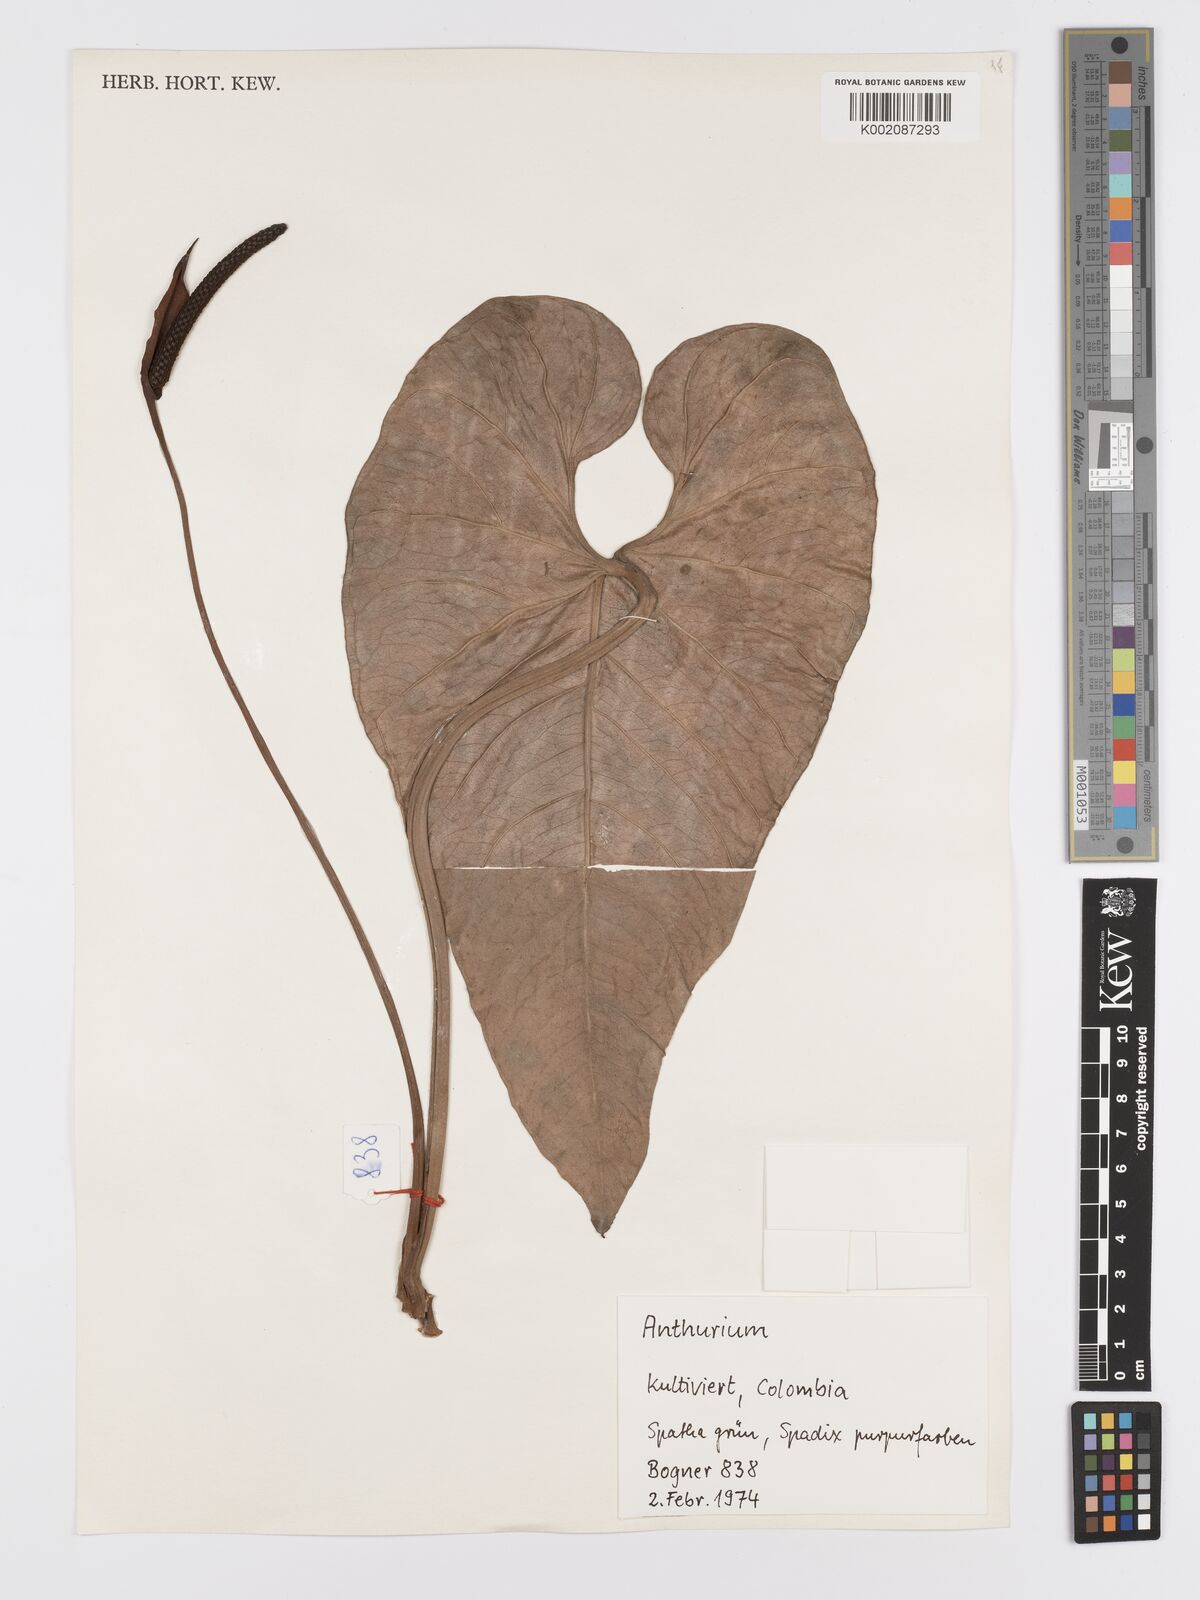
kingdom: Plantae
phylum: Tracheophyta
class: Liliopsida
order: Alismatales
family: Araceae
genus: Anthurium
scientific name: Anthurium
